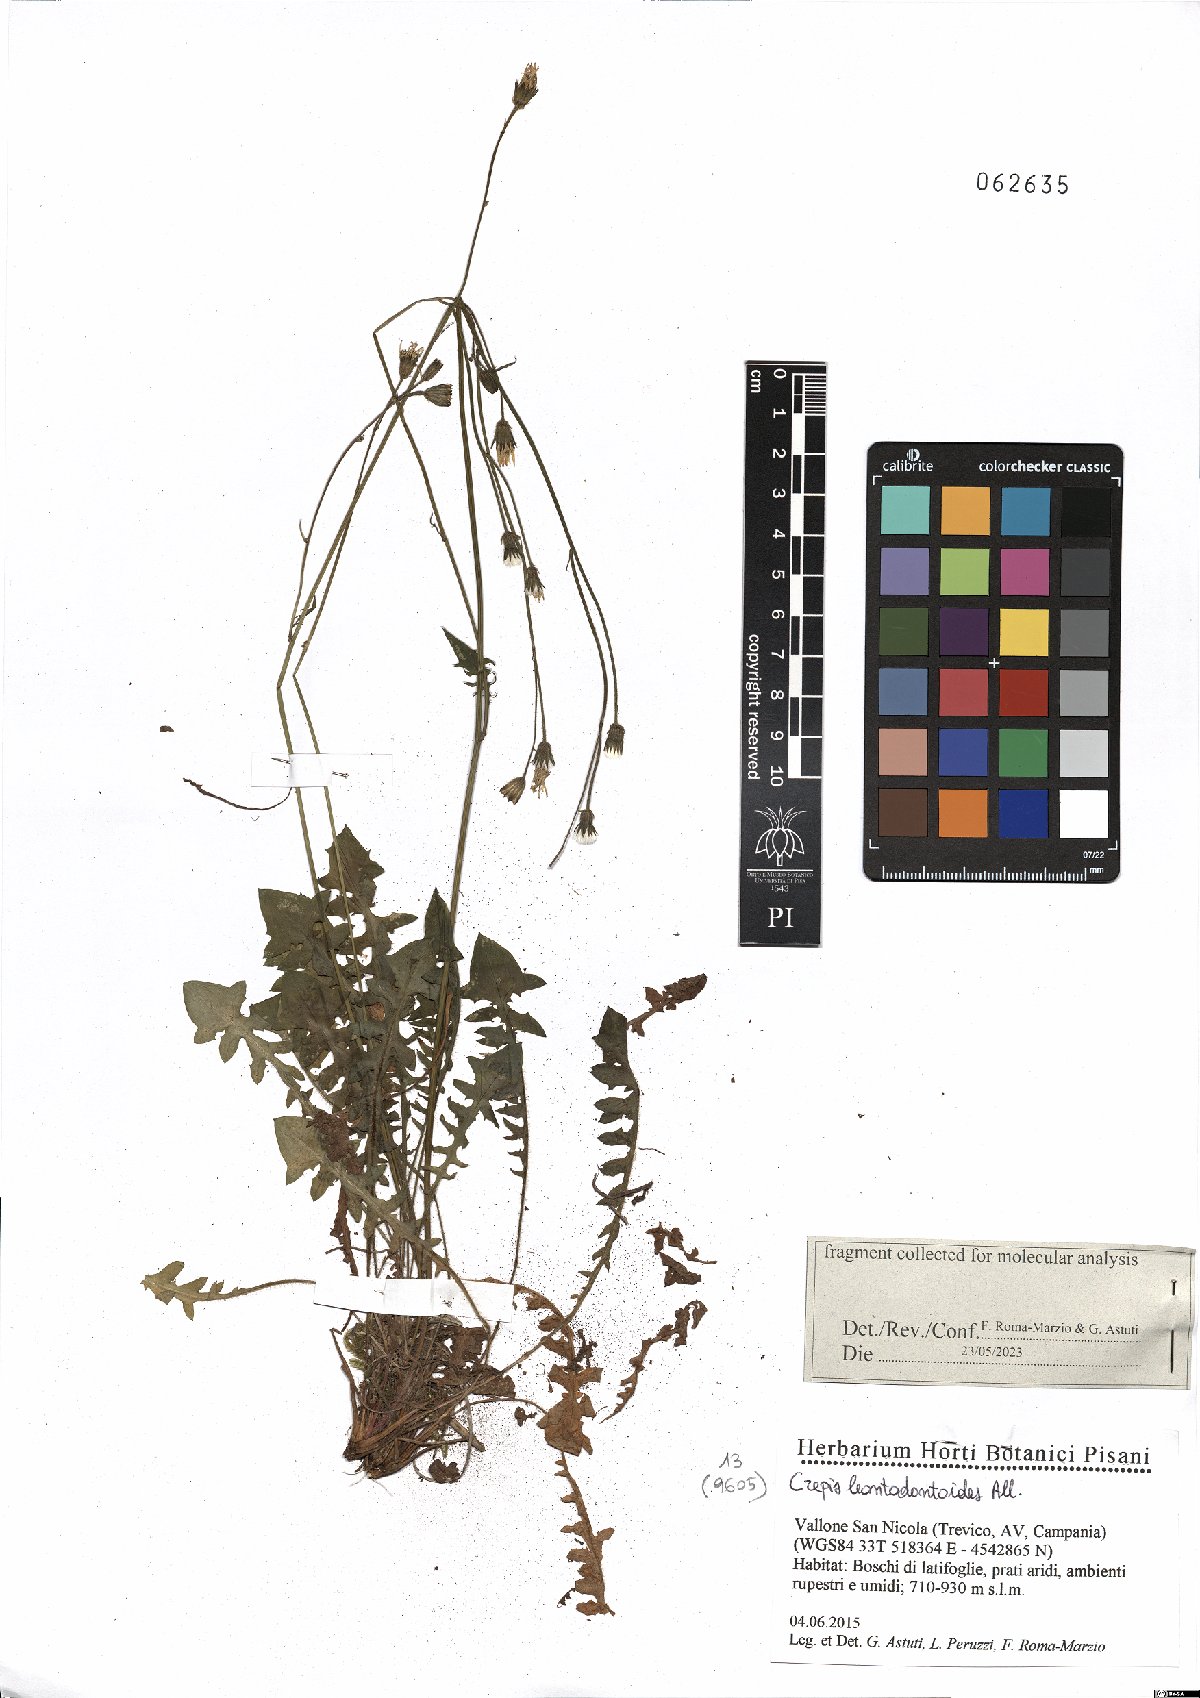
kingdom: Plantae
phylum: Tracheophyta
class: Magnoliopsida
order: Asterales
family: Asteraceae
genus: Crepis
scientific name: Crepis leontodontoides
